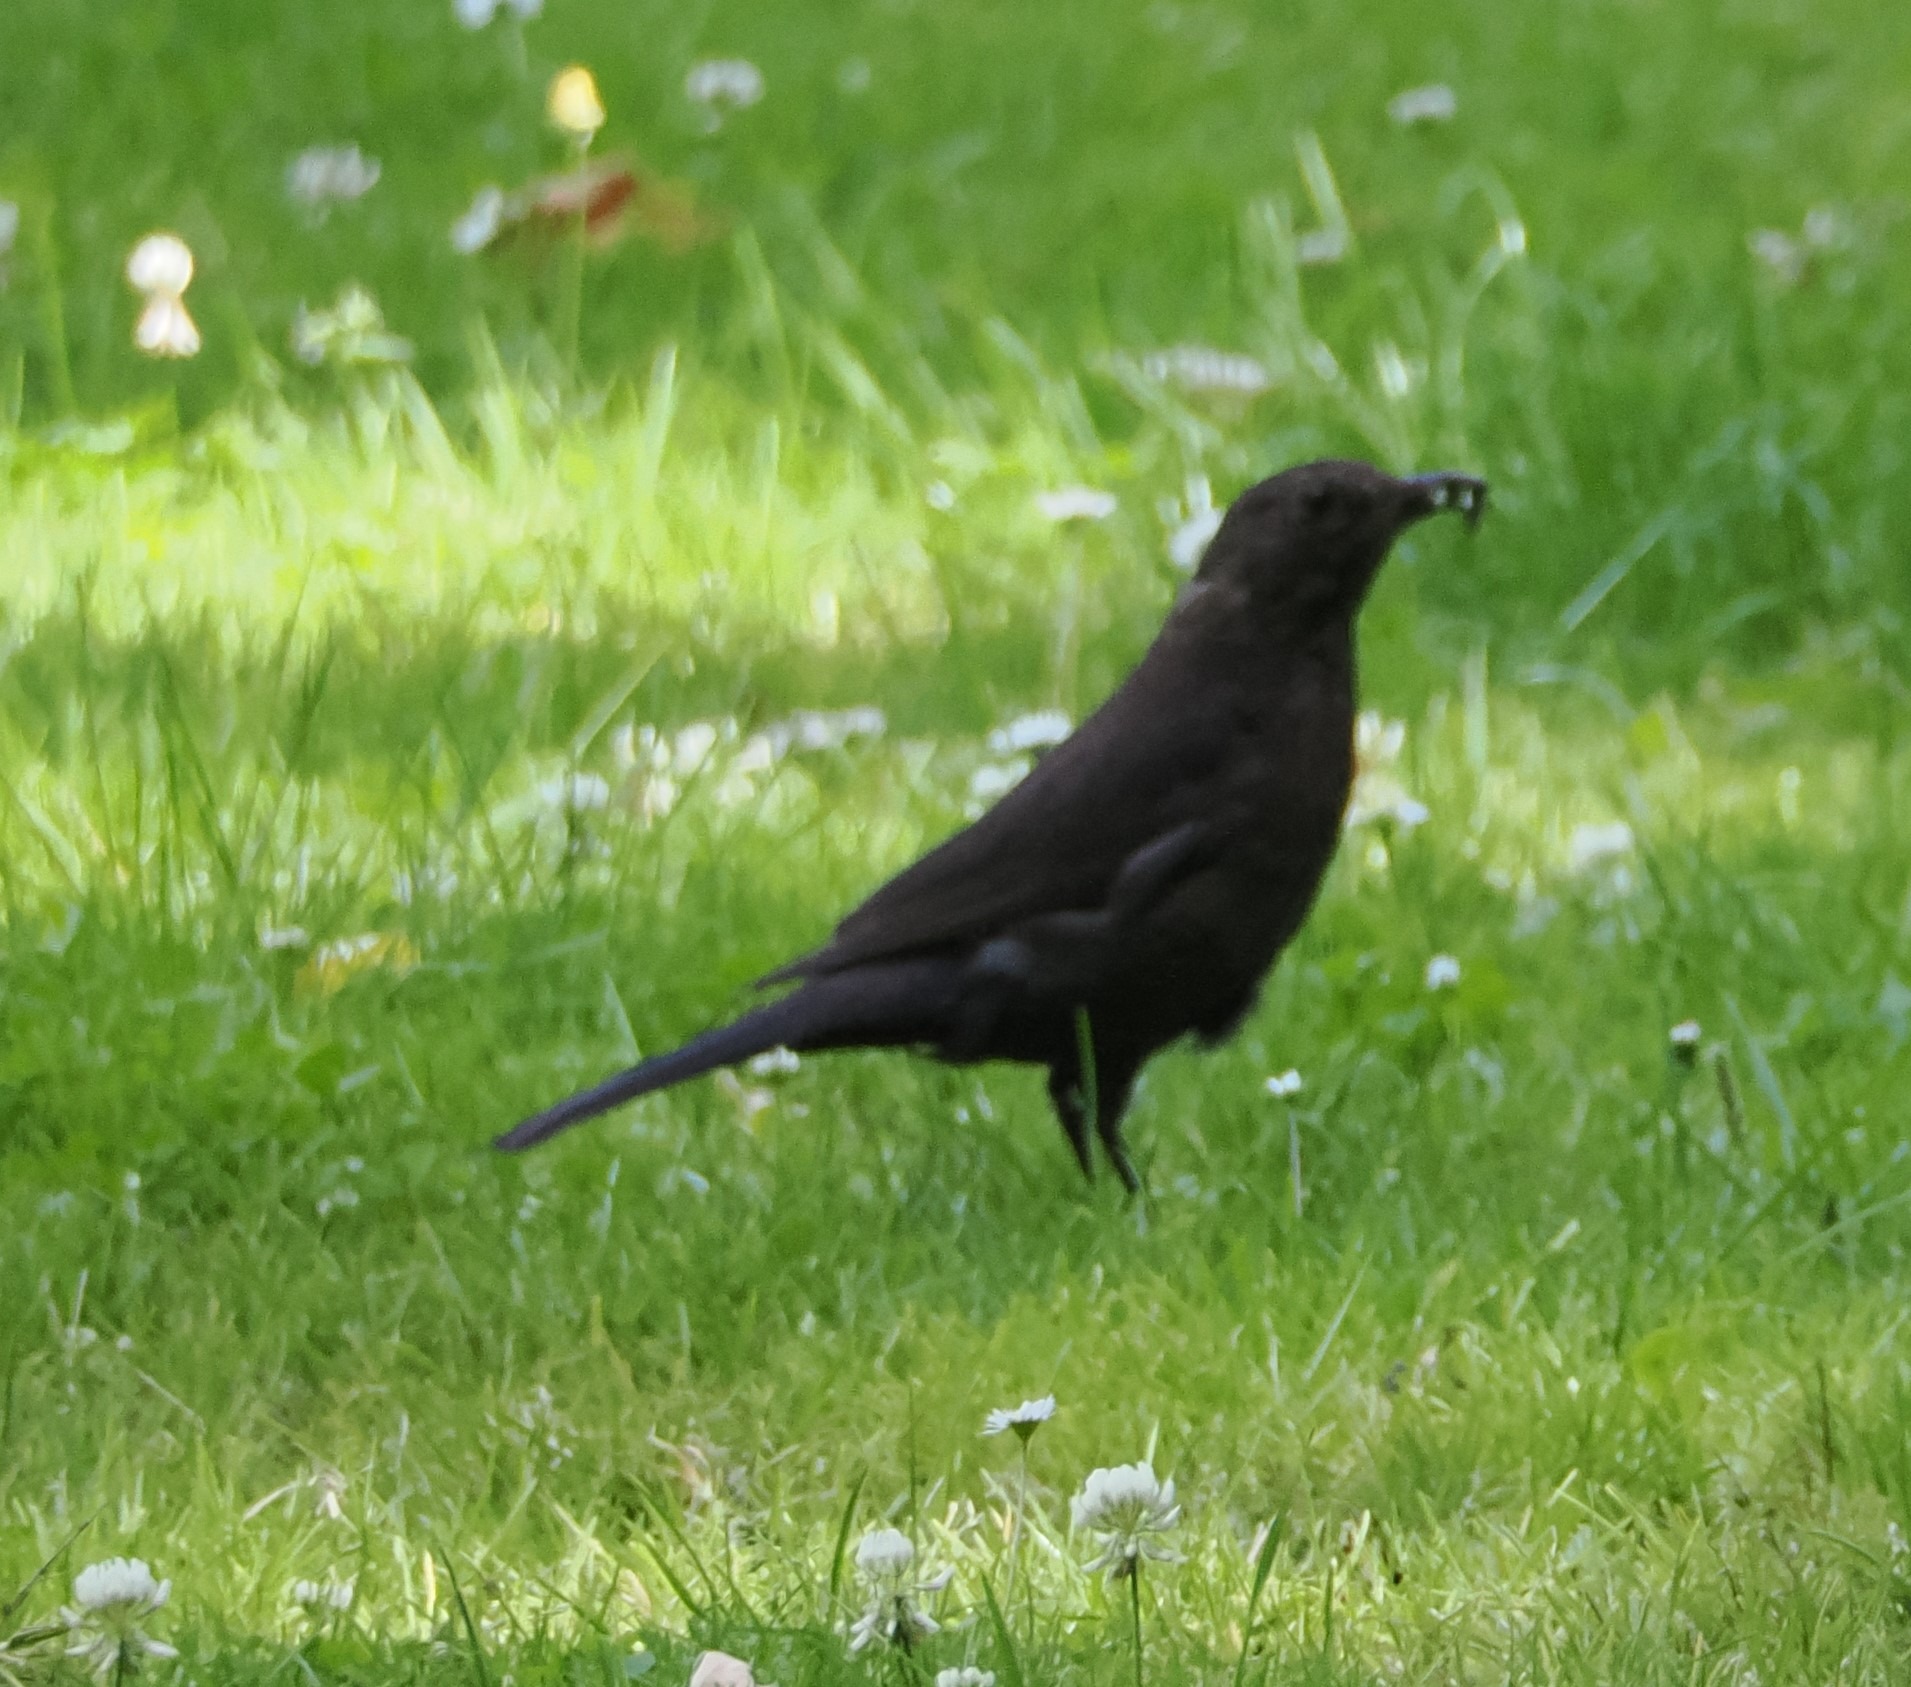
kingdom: Animalia
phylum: Chordata
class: Aves
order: Passeriformes
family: Turdidae
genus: Turdus
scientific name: Turdus merula
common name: Solsort
